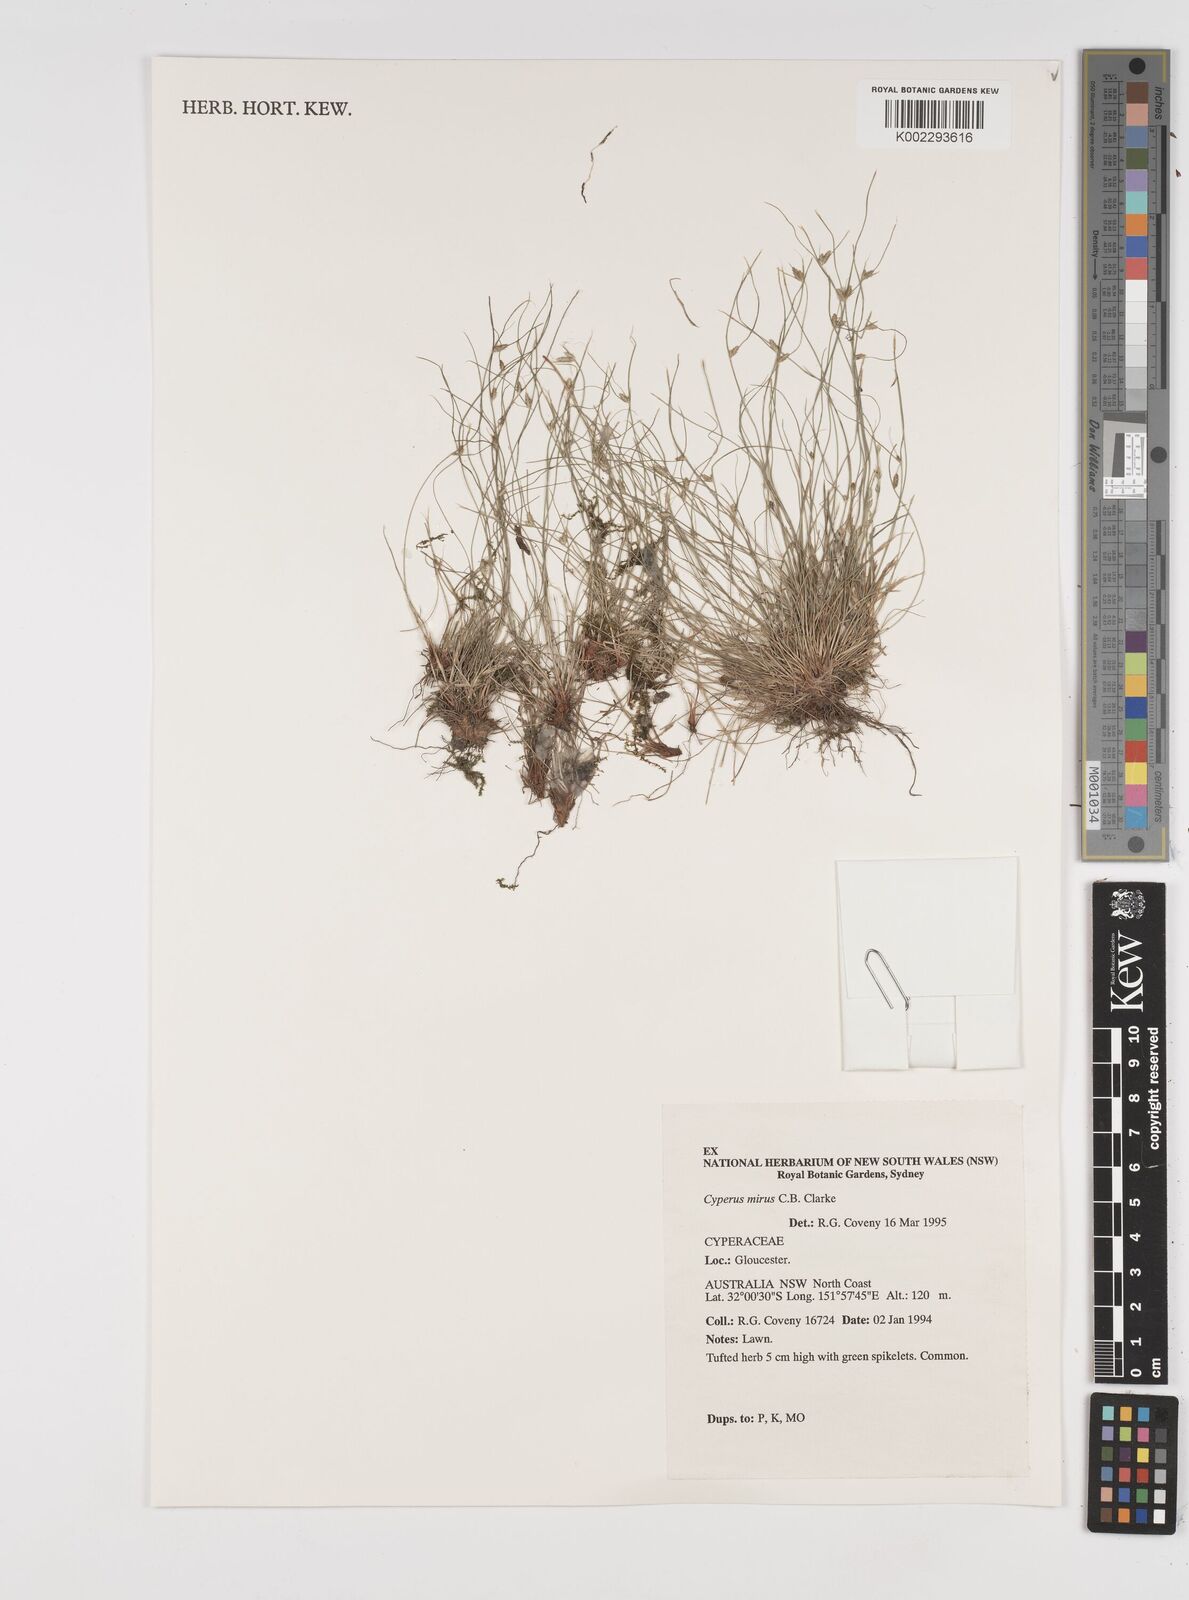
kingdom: Plantae
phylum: Tracheophyta
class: Liliopsida
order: Poales
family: Cyperaceae
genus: Cyperus
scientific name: Cyperus mirus
